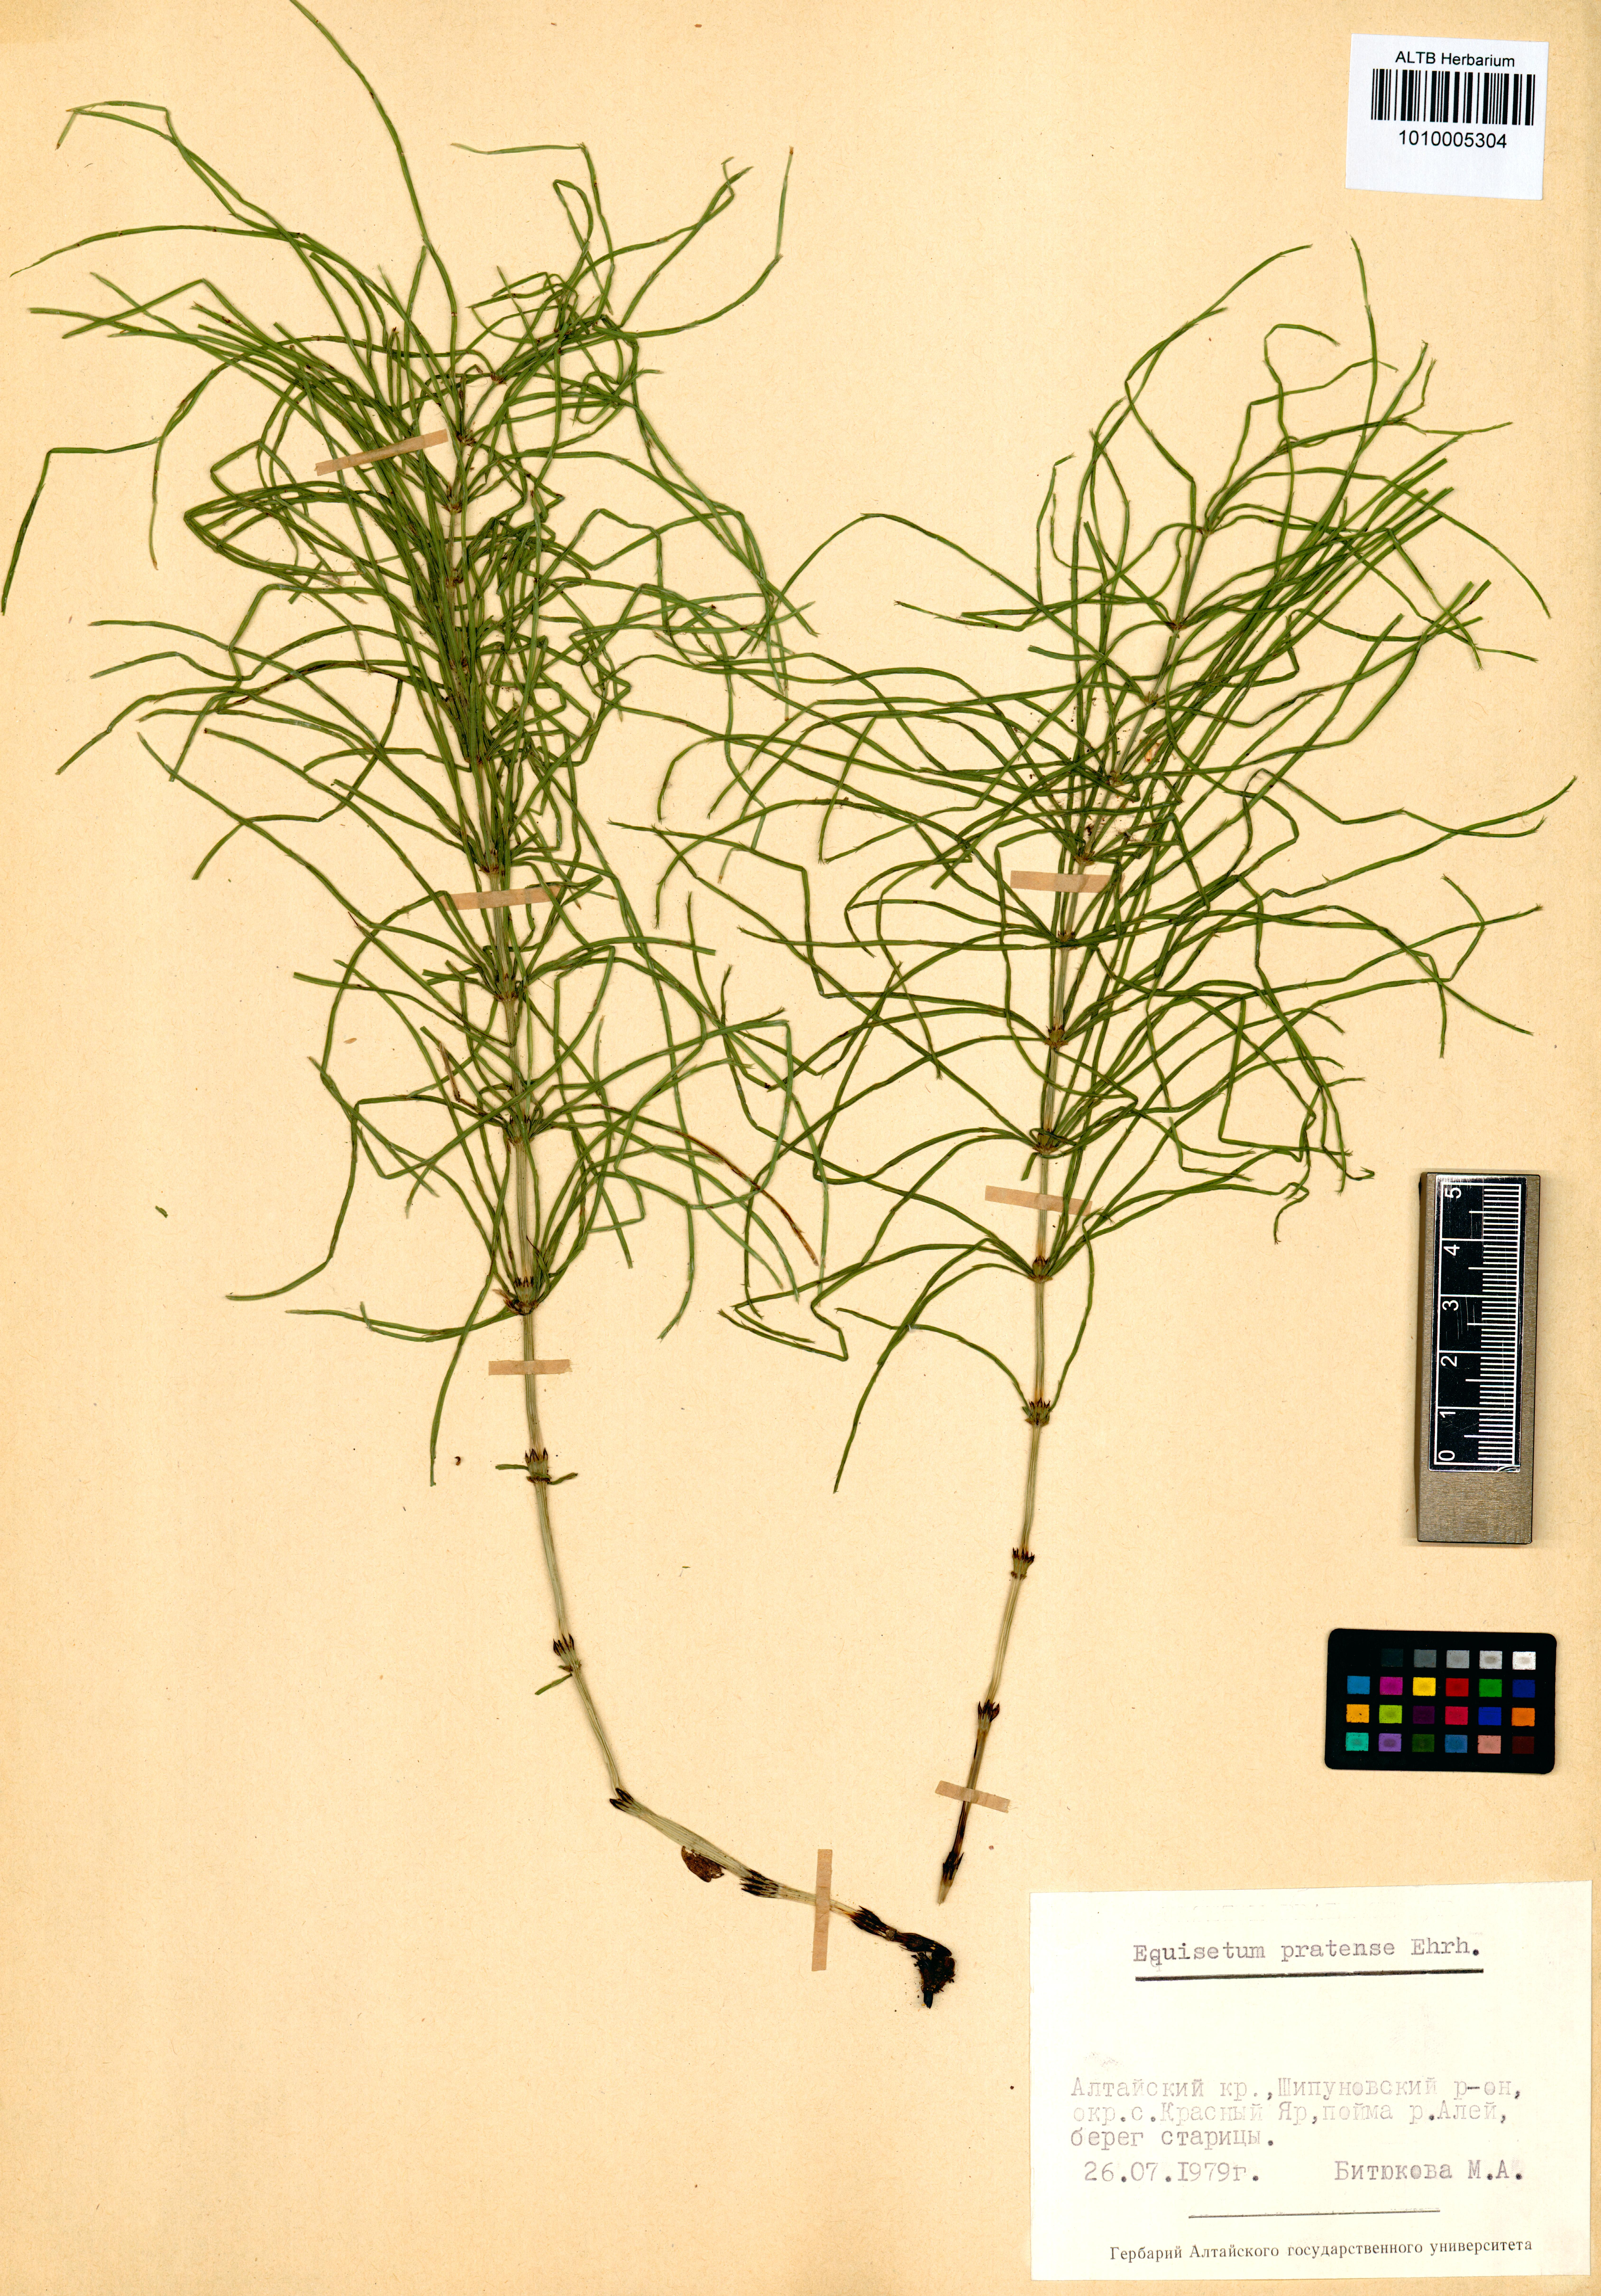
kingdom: Plantae
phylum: Tracheophyta
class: Polypodiopsida
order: Equisetales
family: Equisetaceae
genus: Equisetum
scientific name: Equisetum pratense
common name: Meadow horsetail
